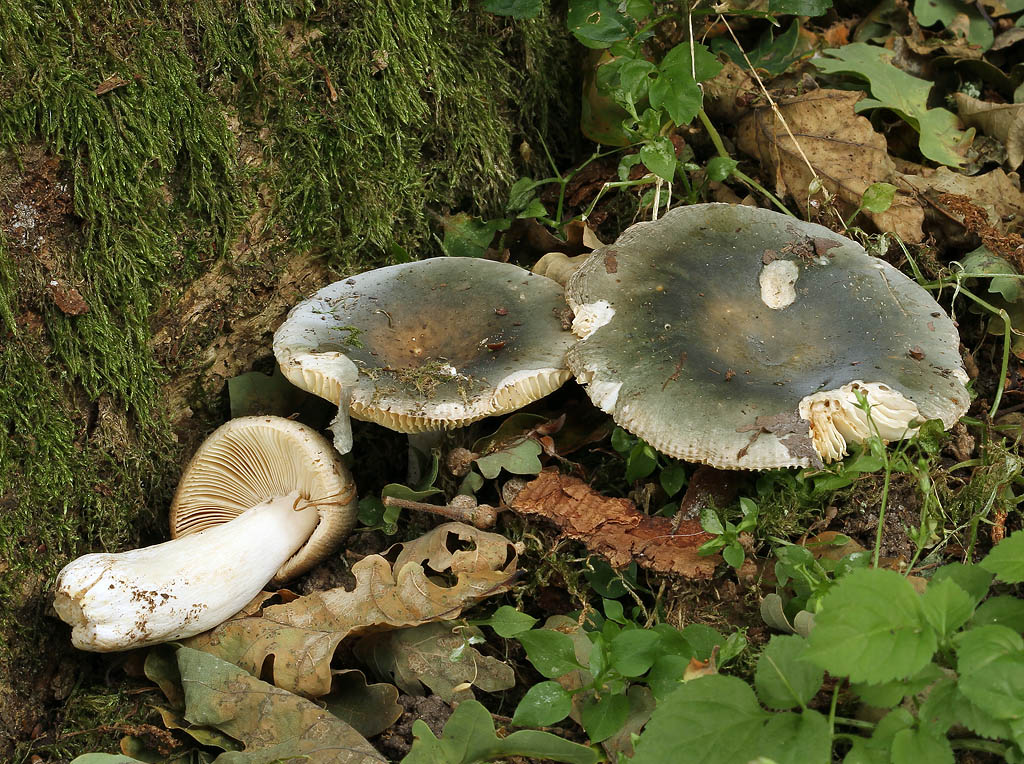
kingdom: Fungi
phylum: Basidiomycota
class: Agaricomycetes
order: Russulales
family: Russulaceae
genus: Russula
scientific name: Russula parazurea
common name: blågrå skørhat
